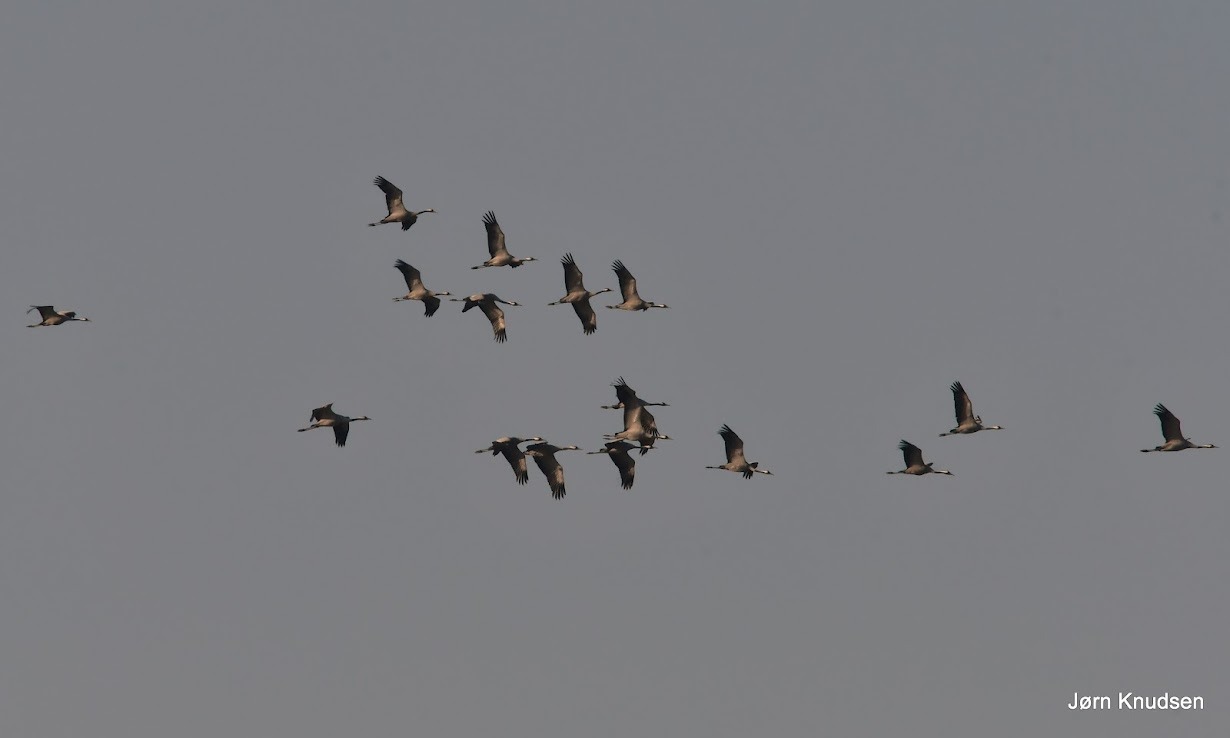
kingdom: Animalia
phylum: Chordata
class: Aves
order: Gruiformes
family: Gruidae
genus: Grus
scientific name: Grus grus
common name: Trane
